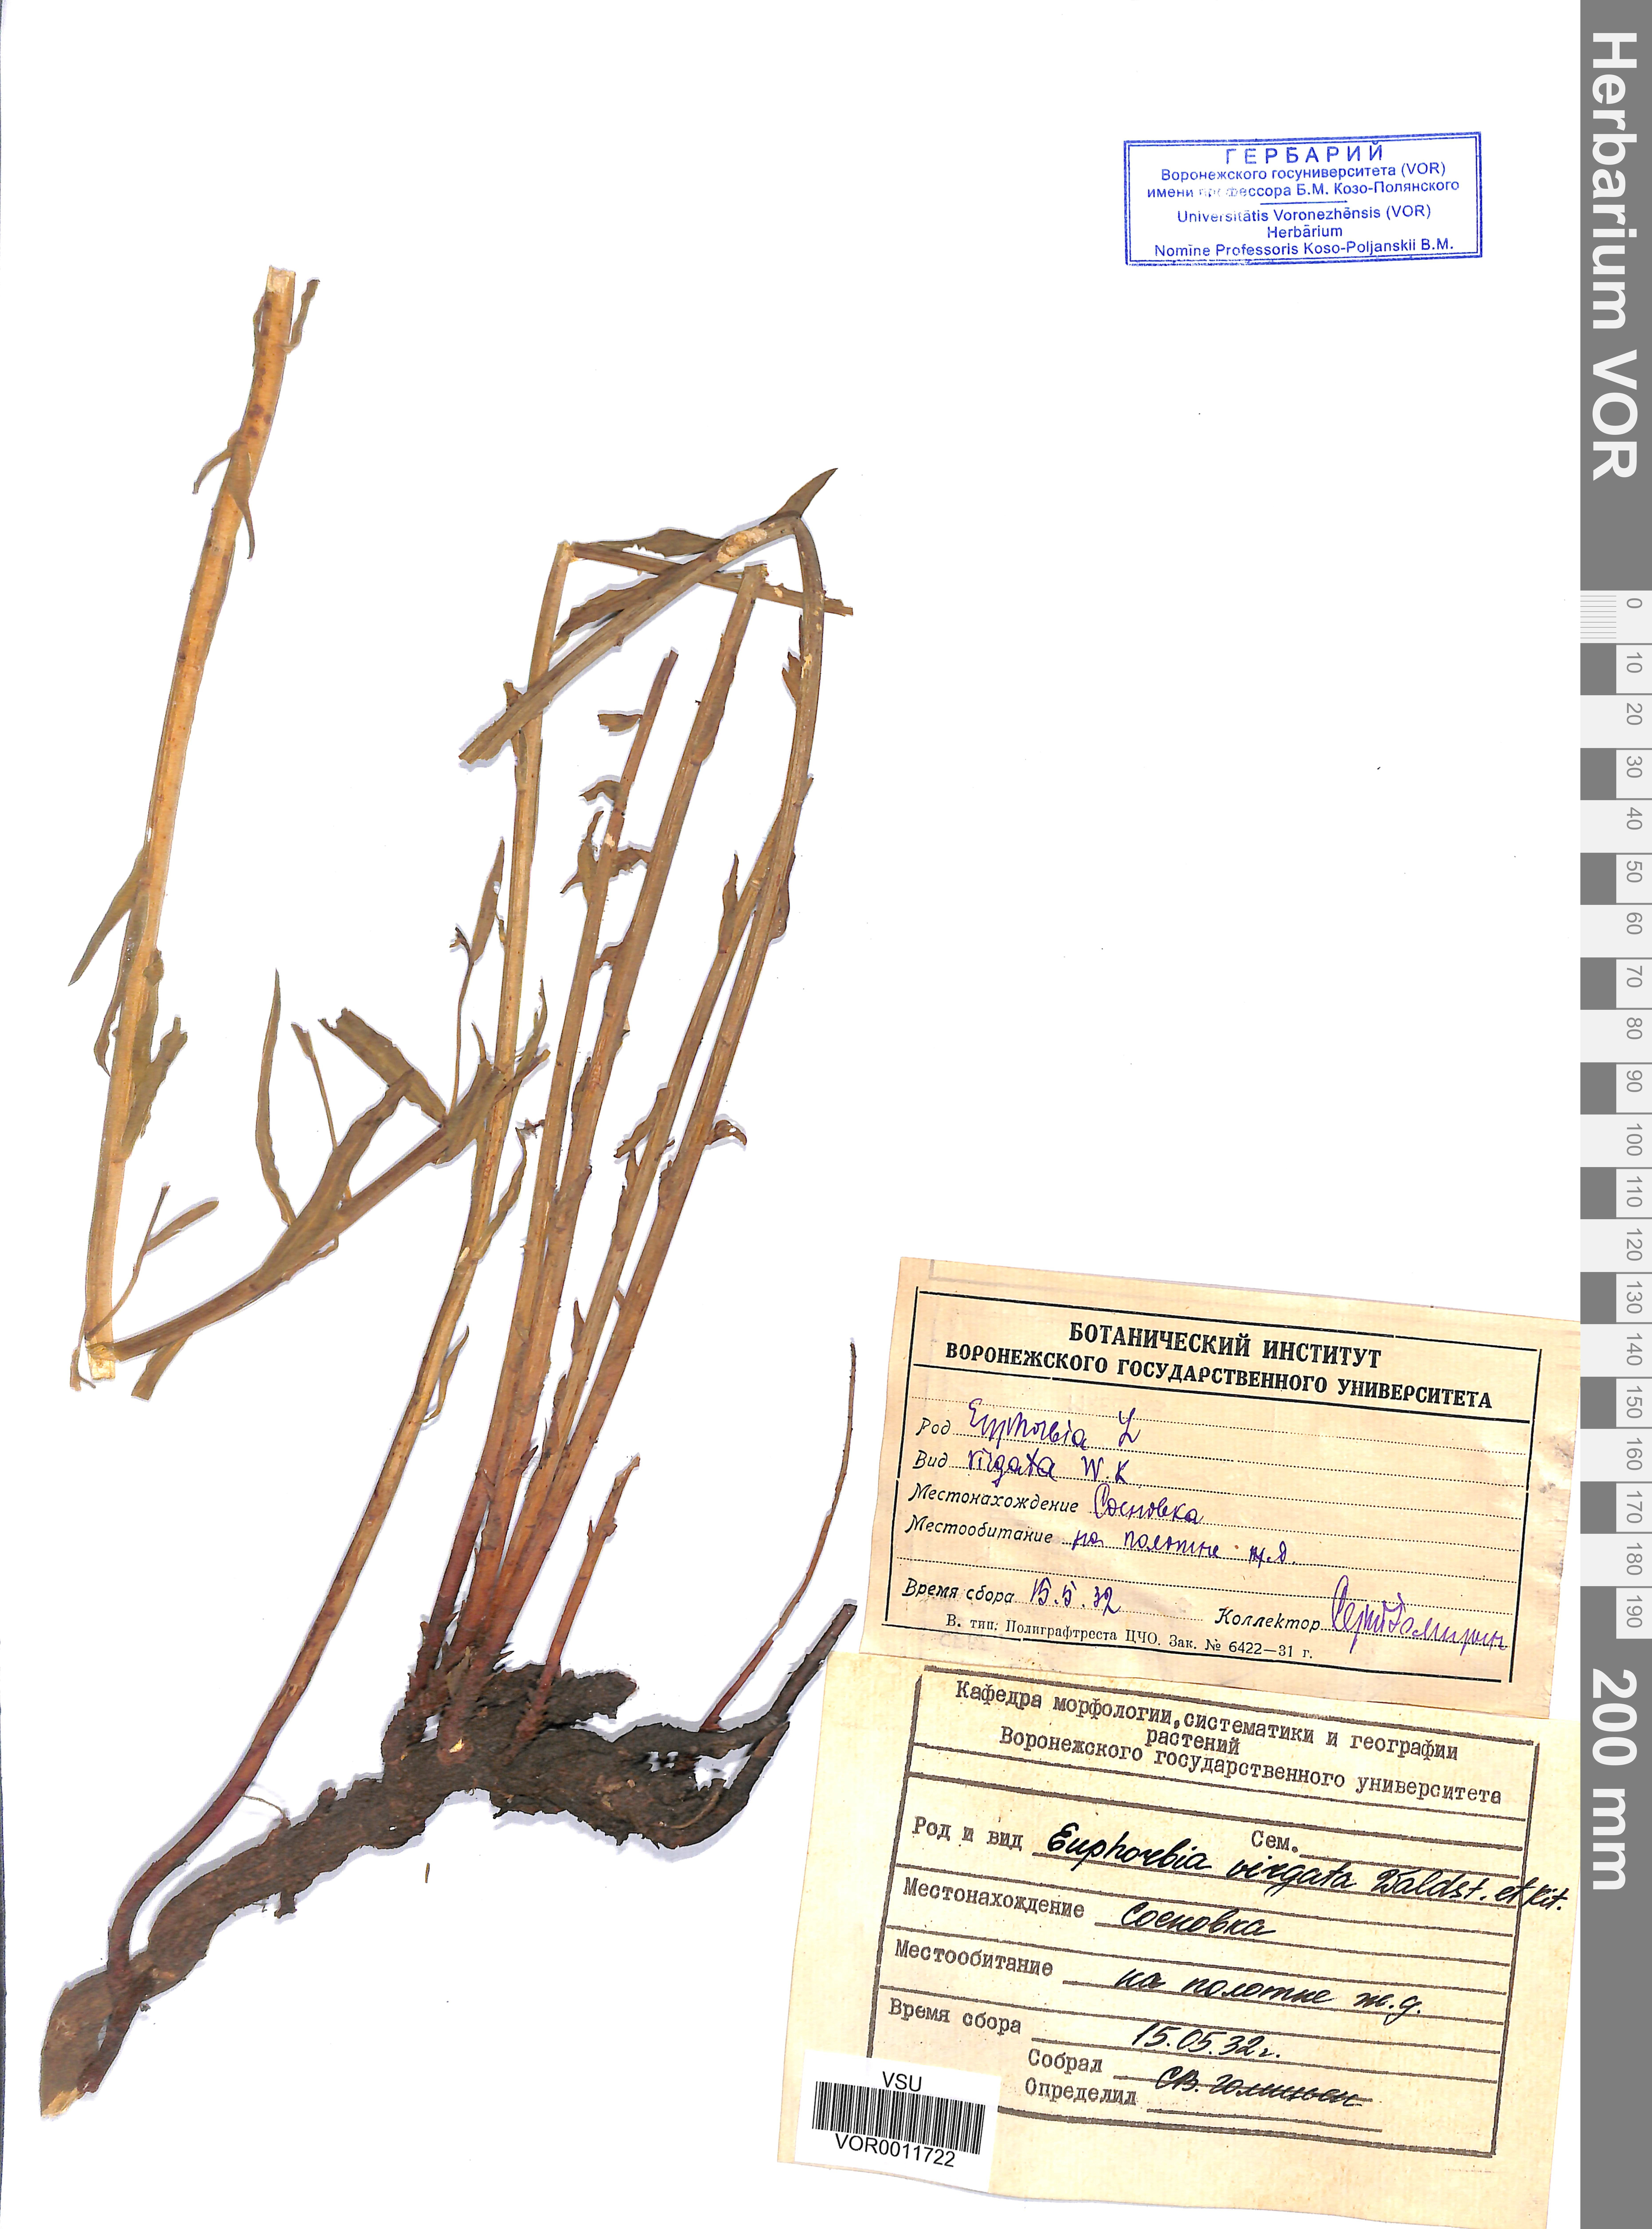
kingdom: Plantae
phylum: Tracheophyta
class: Magnoliopsida
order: Malpighiales
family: Euphorbiaceae
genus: Euphorbia
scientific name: Euphorbia virgata
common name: Leafy spurge
